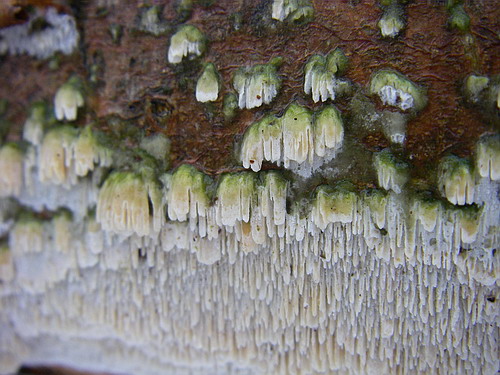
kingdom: Fungi
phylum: Basidiomycota
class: Agaricomycetes
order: Hymenochaetales
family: Schizoporaceae
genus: Schizopora
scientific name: Schizopora paradoxa
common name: hvid tandsvamp
